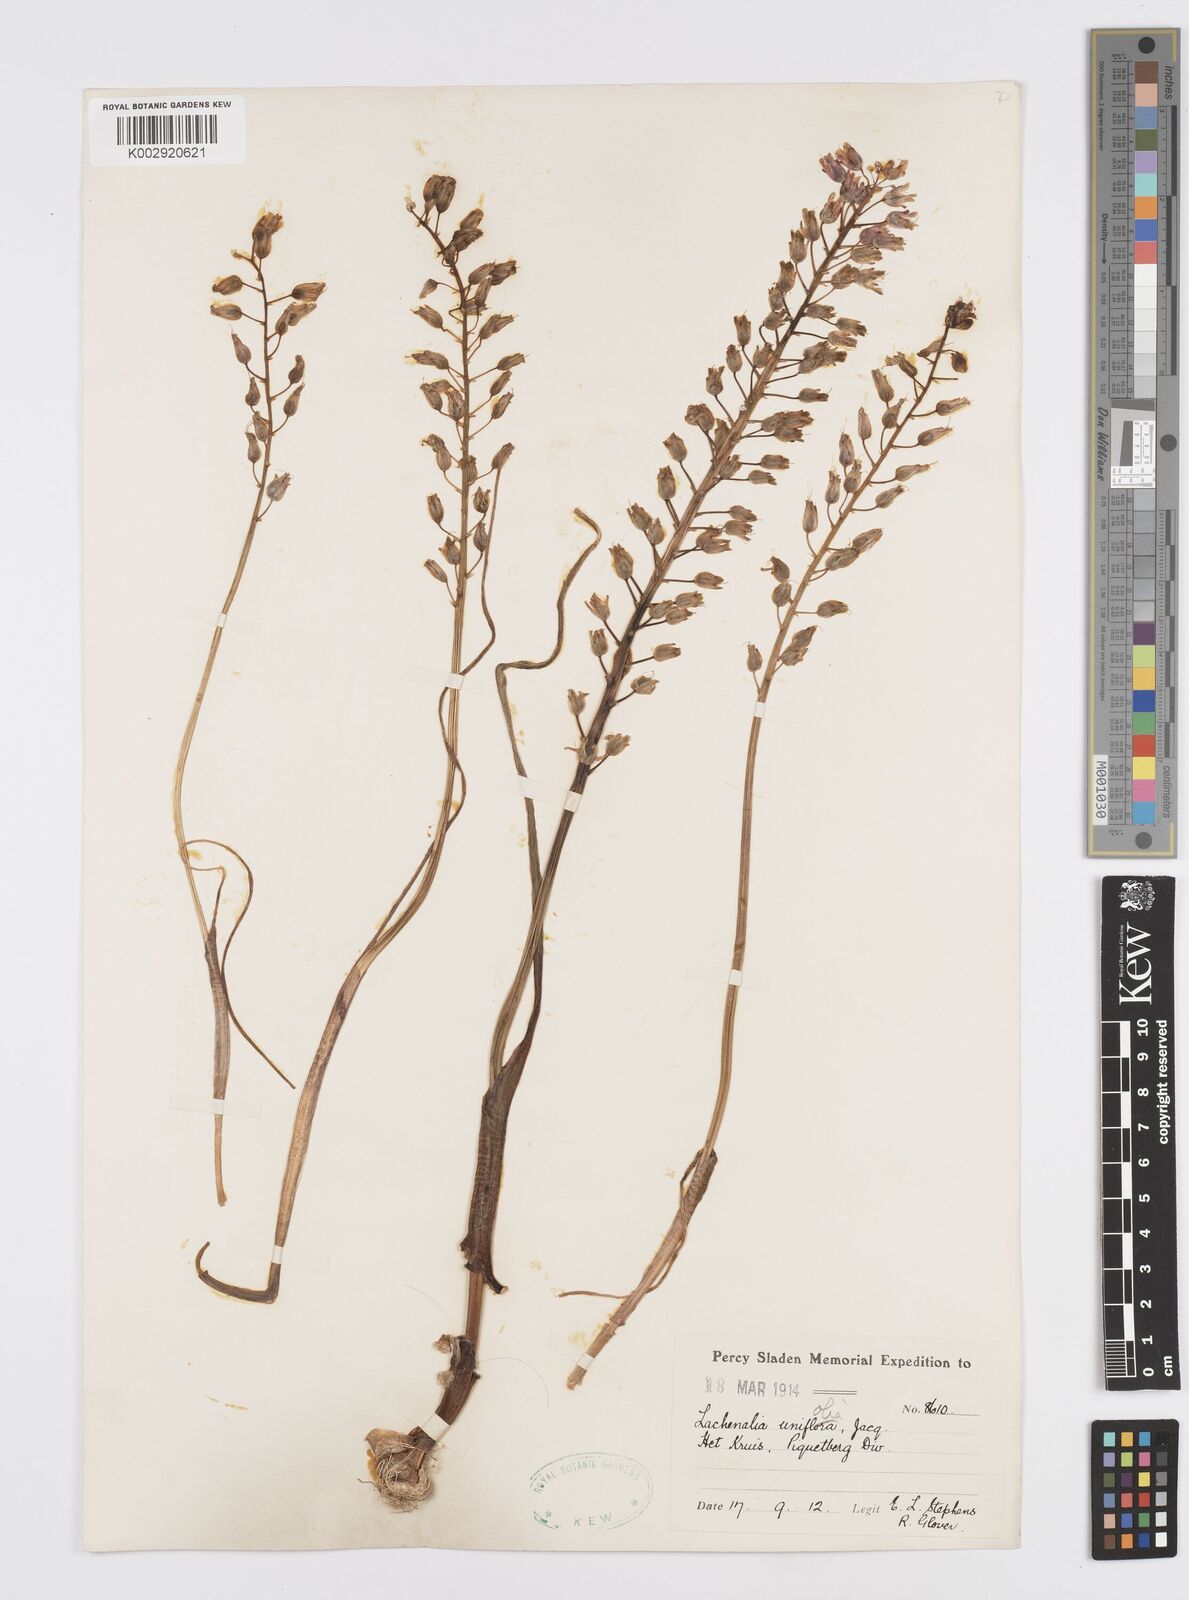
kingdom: Plantae
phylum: Tracheophyta
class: Liliopsida
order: Asparagales
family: Asparagaceae
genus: Lachenalia
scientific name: Lachenalia unifolia
